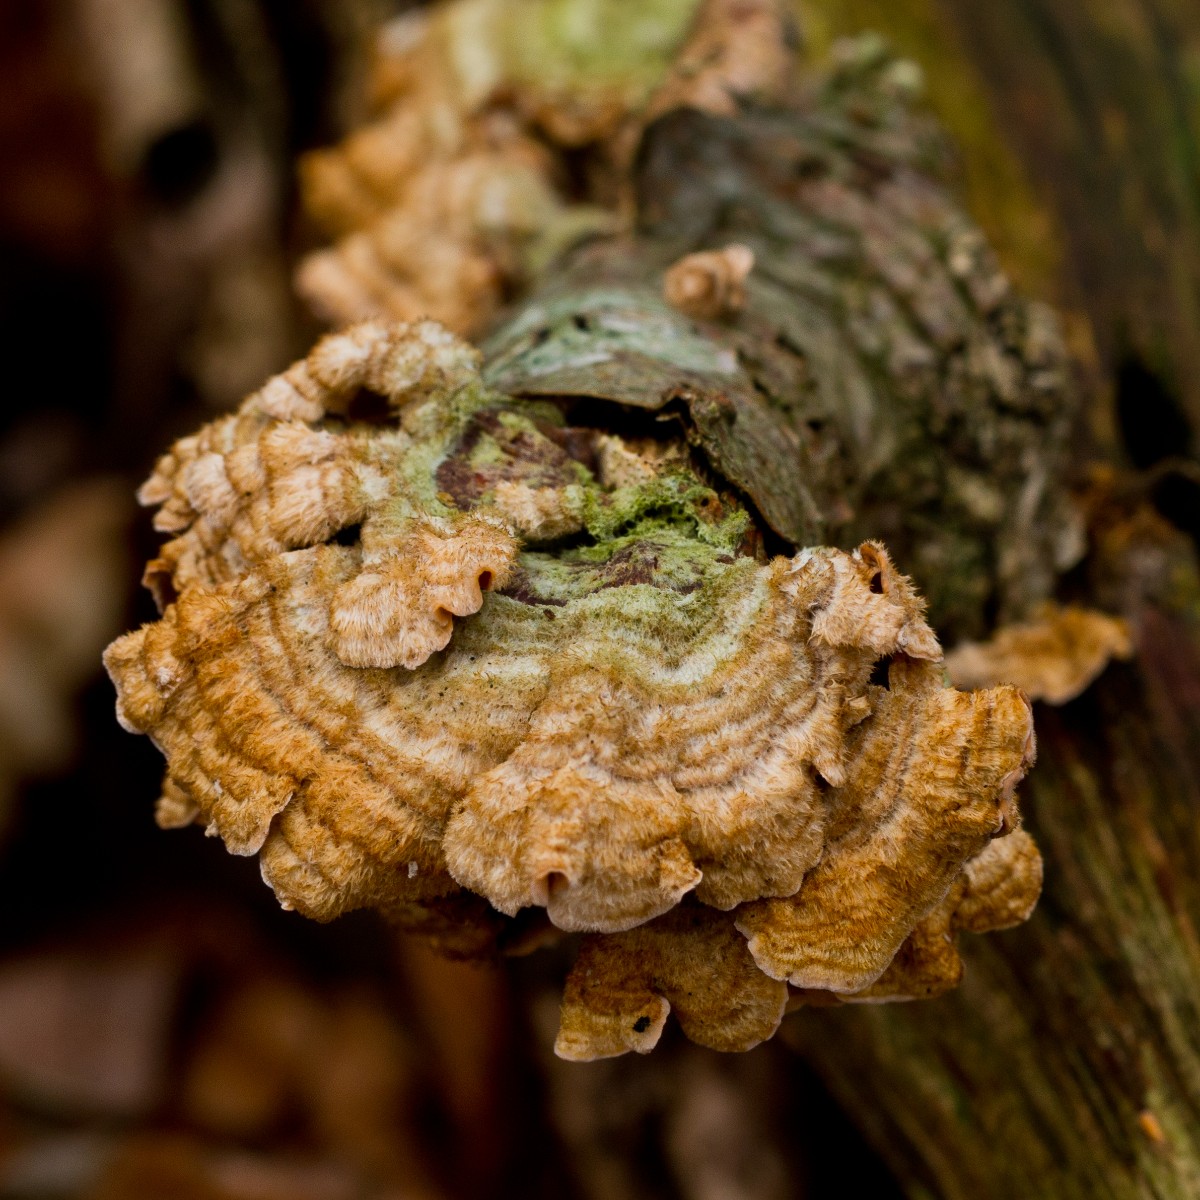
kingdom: Fungi
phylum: Basidiomycota
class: Agaricomycetes
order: Russulales
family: Stereaceae
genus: Stereum
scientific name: Stereum hirsutum
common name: håret lædersvamp
